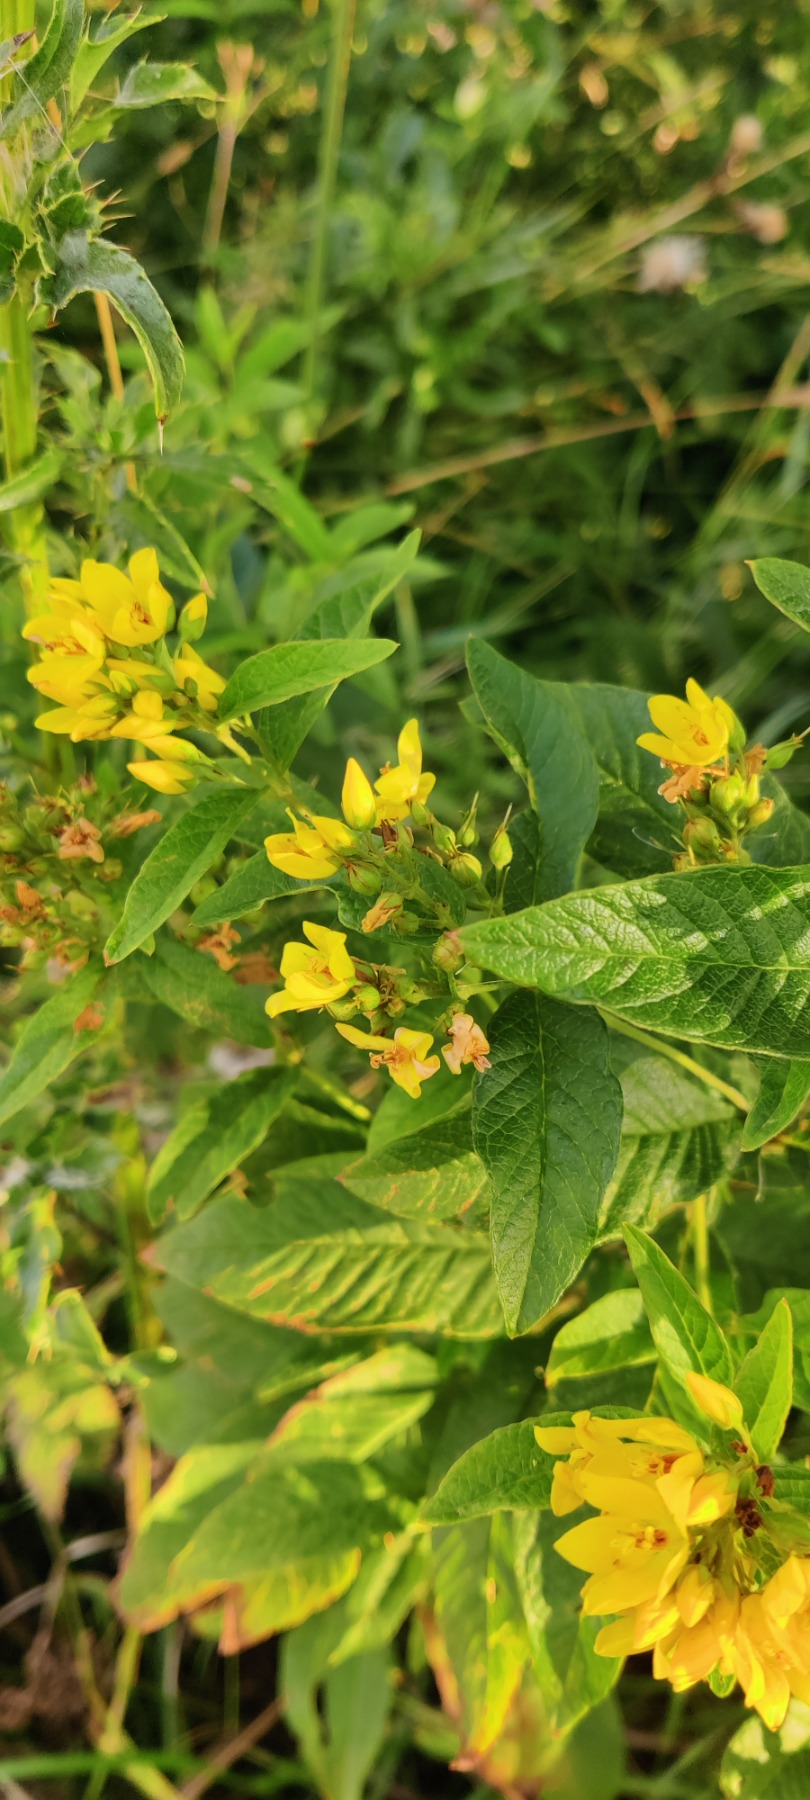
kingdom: Plantae
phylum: Tracheophyta
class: Magnoliopsida
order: Ericales
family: Primulaceae
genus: Lysimachia
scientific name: Lysimachia vulgaris
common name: Almindelig fredløs
